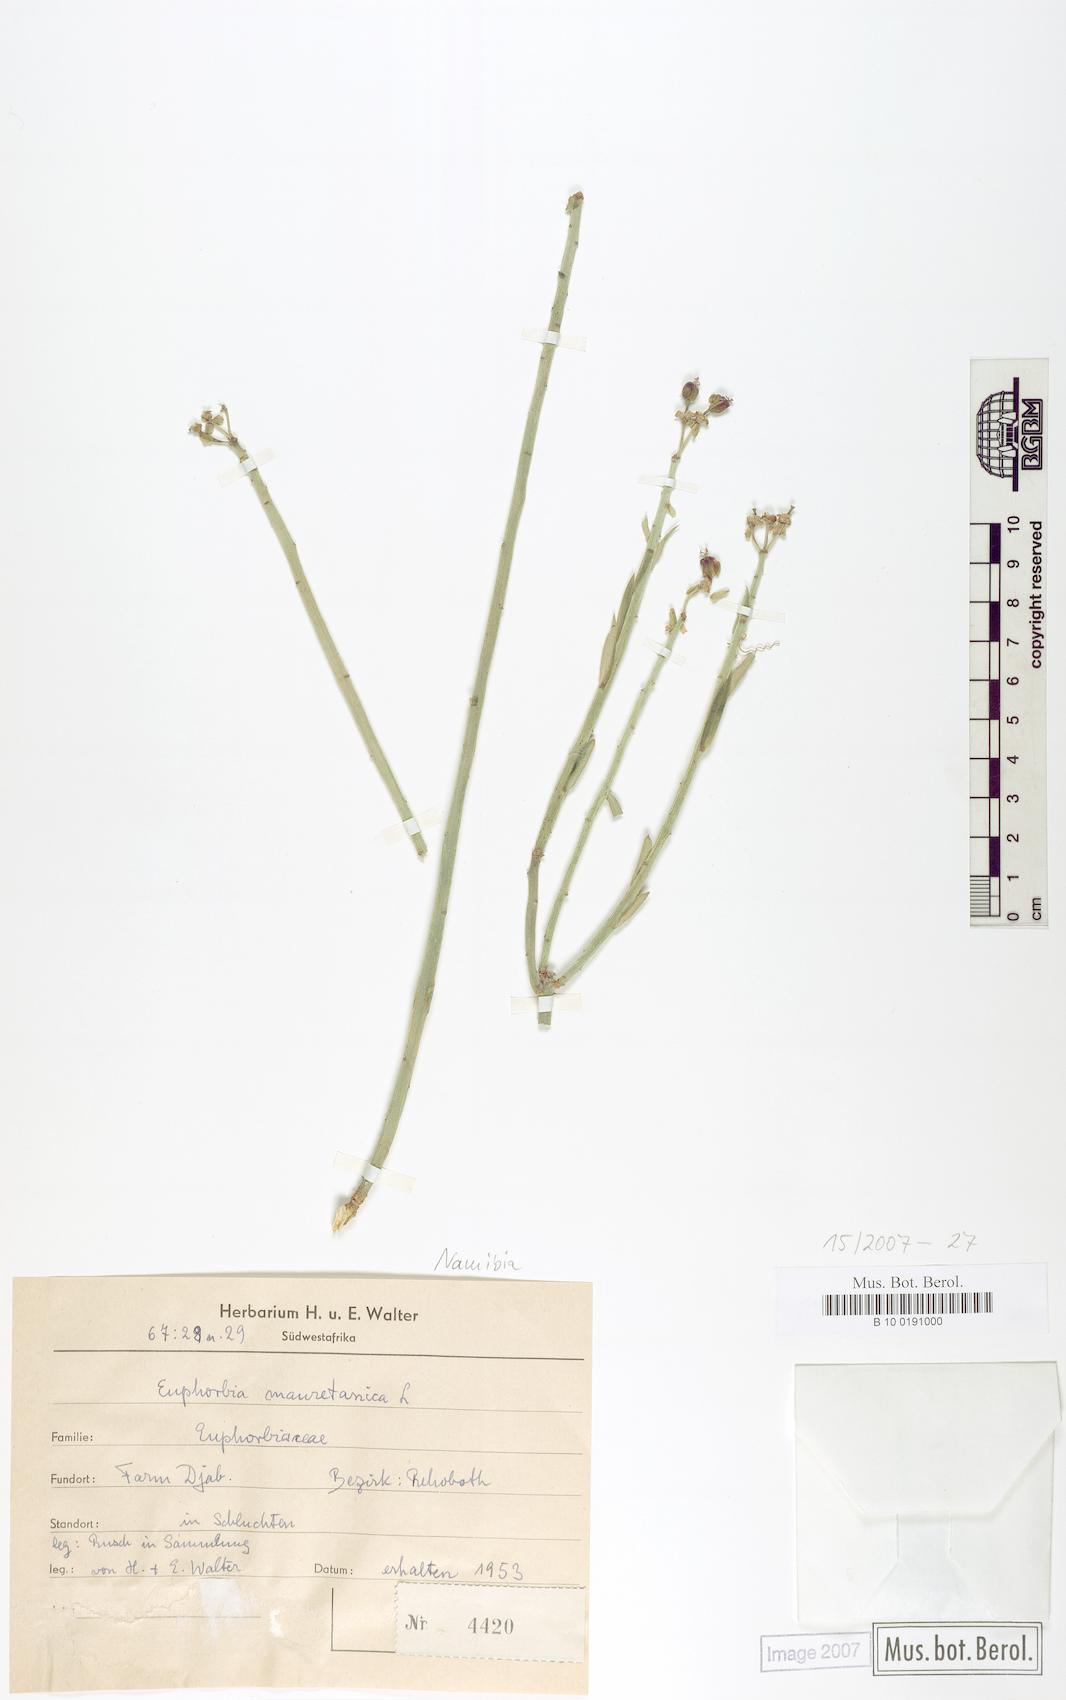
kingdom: Plantae
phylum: Tracheophyta
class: Magnoliopsida
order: Malpighiales
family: Euphorbiaceae
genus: Euphorbia
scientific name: Euphorbia mauritanica
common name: Jackal's-food
